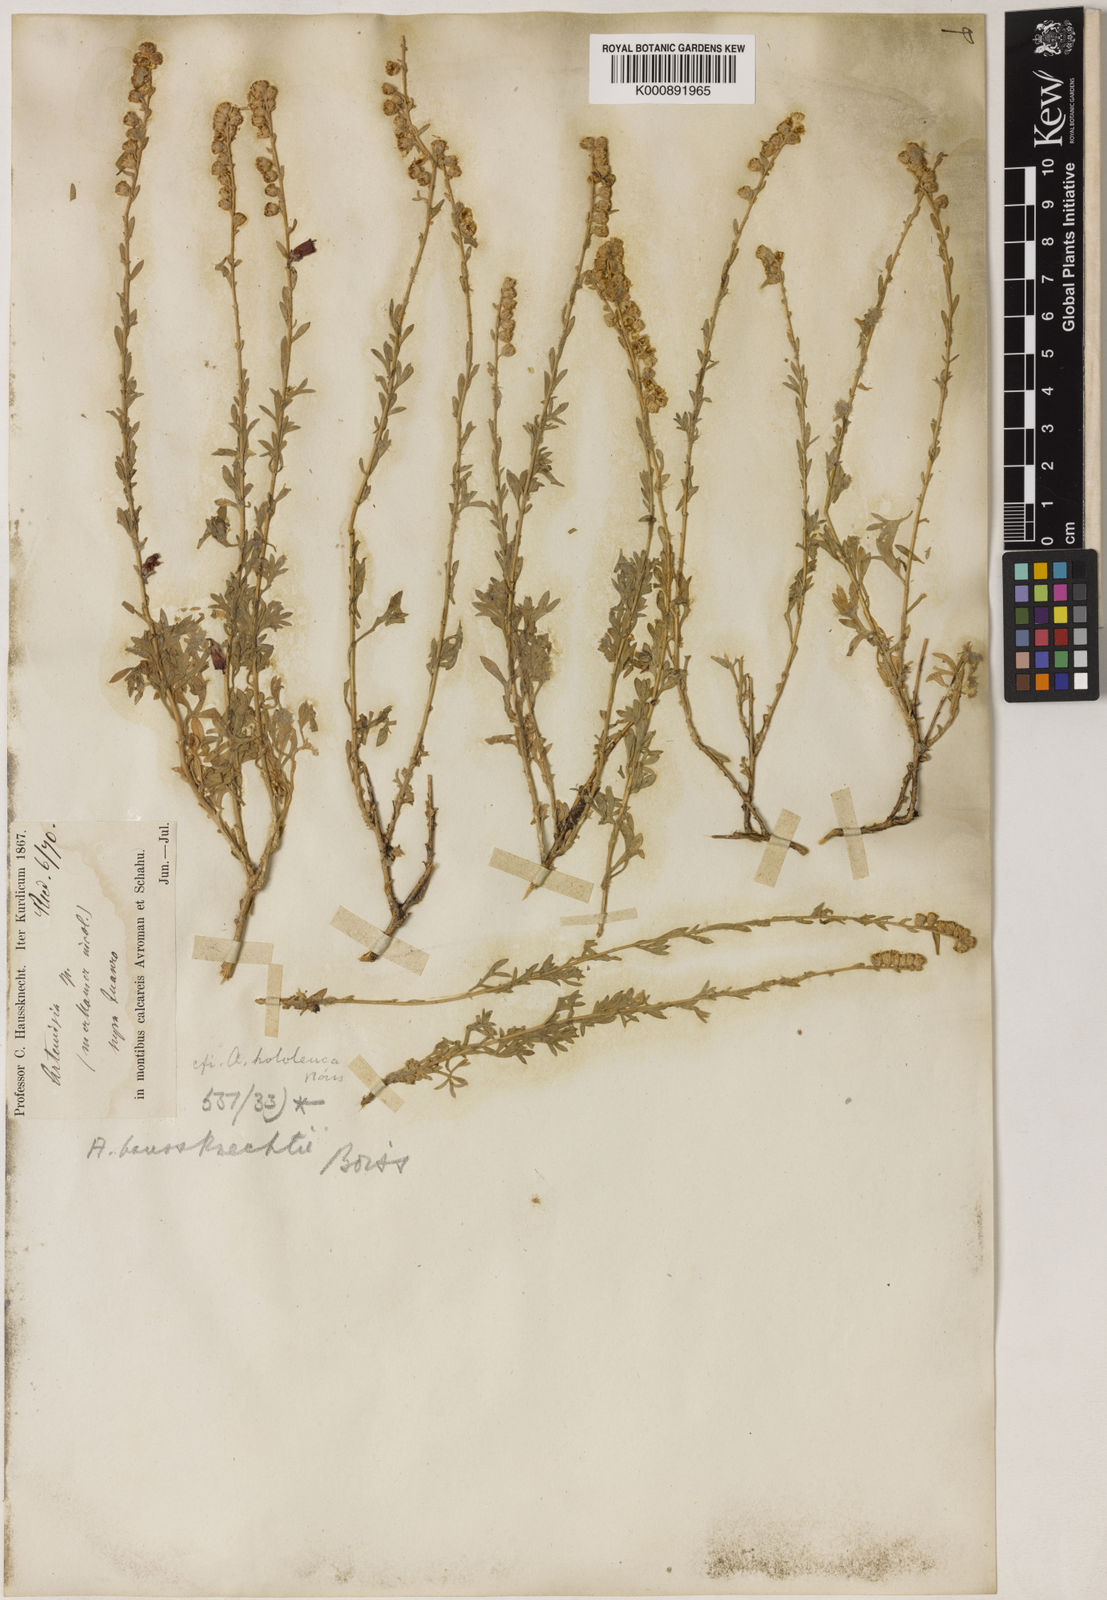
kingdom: Plantae
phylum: Tracheophyta
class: Magnoliopsida
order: Asterales
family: Asteraceae
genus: Artemisia
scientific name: Artemisia haussknechtii
